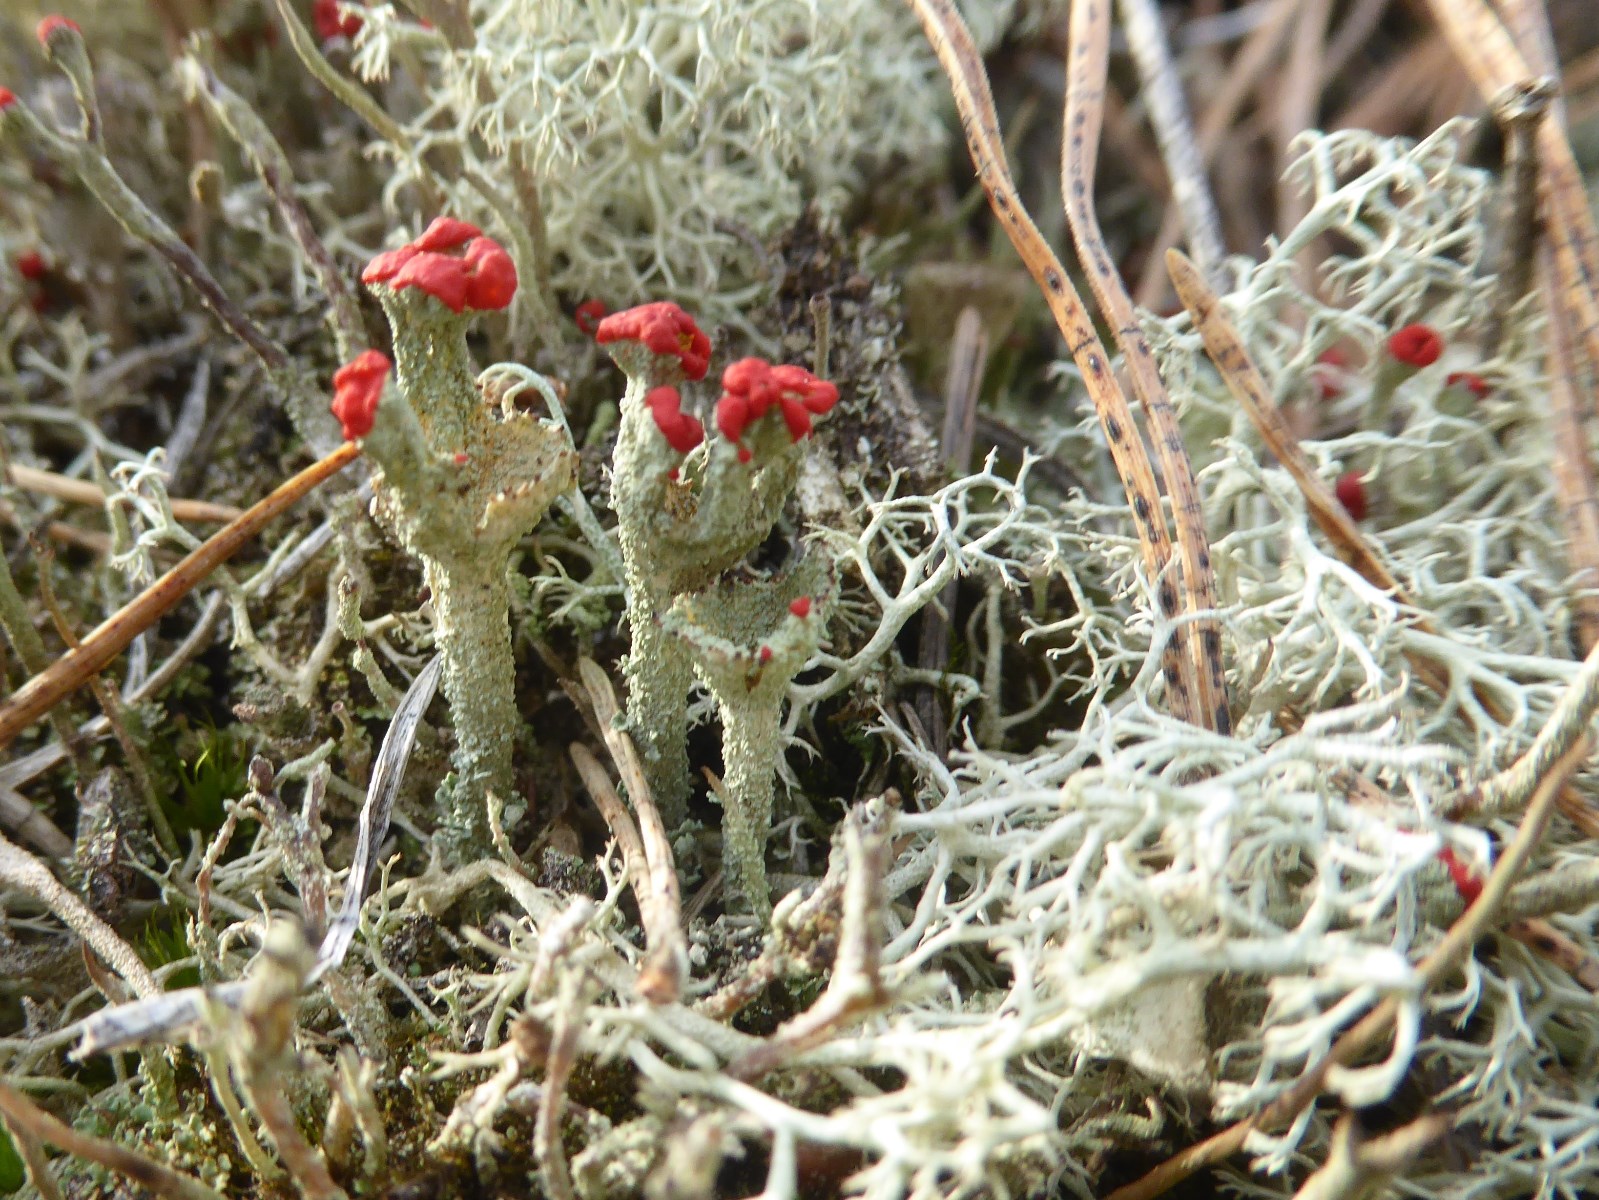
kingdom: Fungi
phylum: Ascomycota
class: Lecanoromycetes
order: Lecanorales
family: Cladoniaceae
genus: Cladonia
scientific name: Cladonia diversa
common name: rød bægerlav
